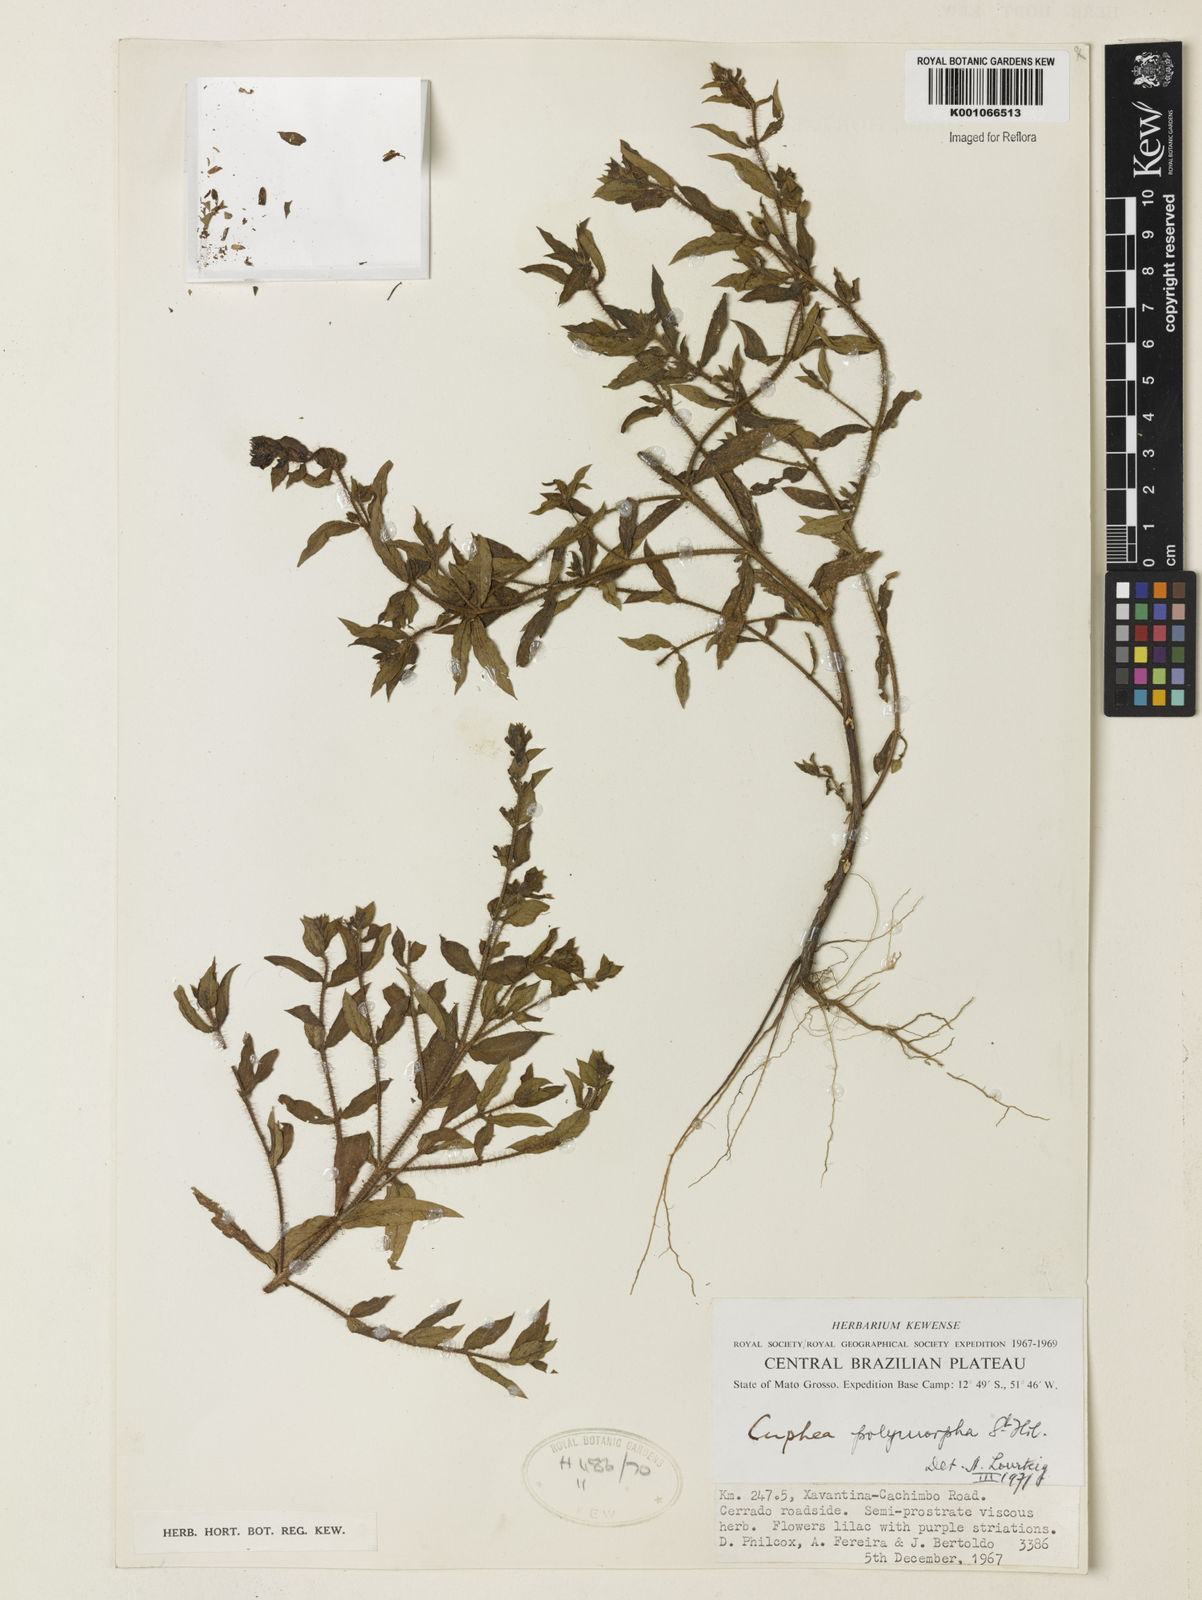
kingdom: Plantae
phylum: Tracheophyta
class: Magnoliopsida
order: Myrtales
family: Lythraceae
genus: Cuphea
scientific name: Cuphea polymorpha
